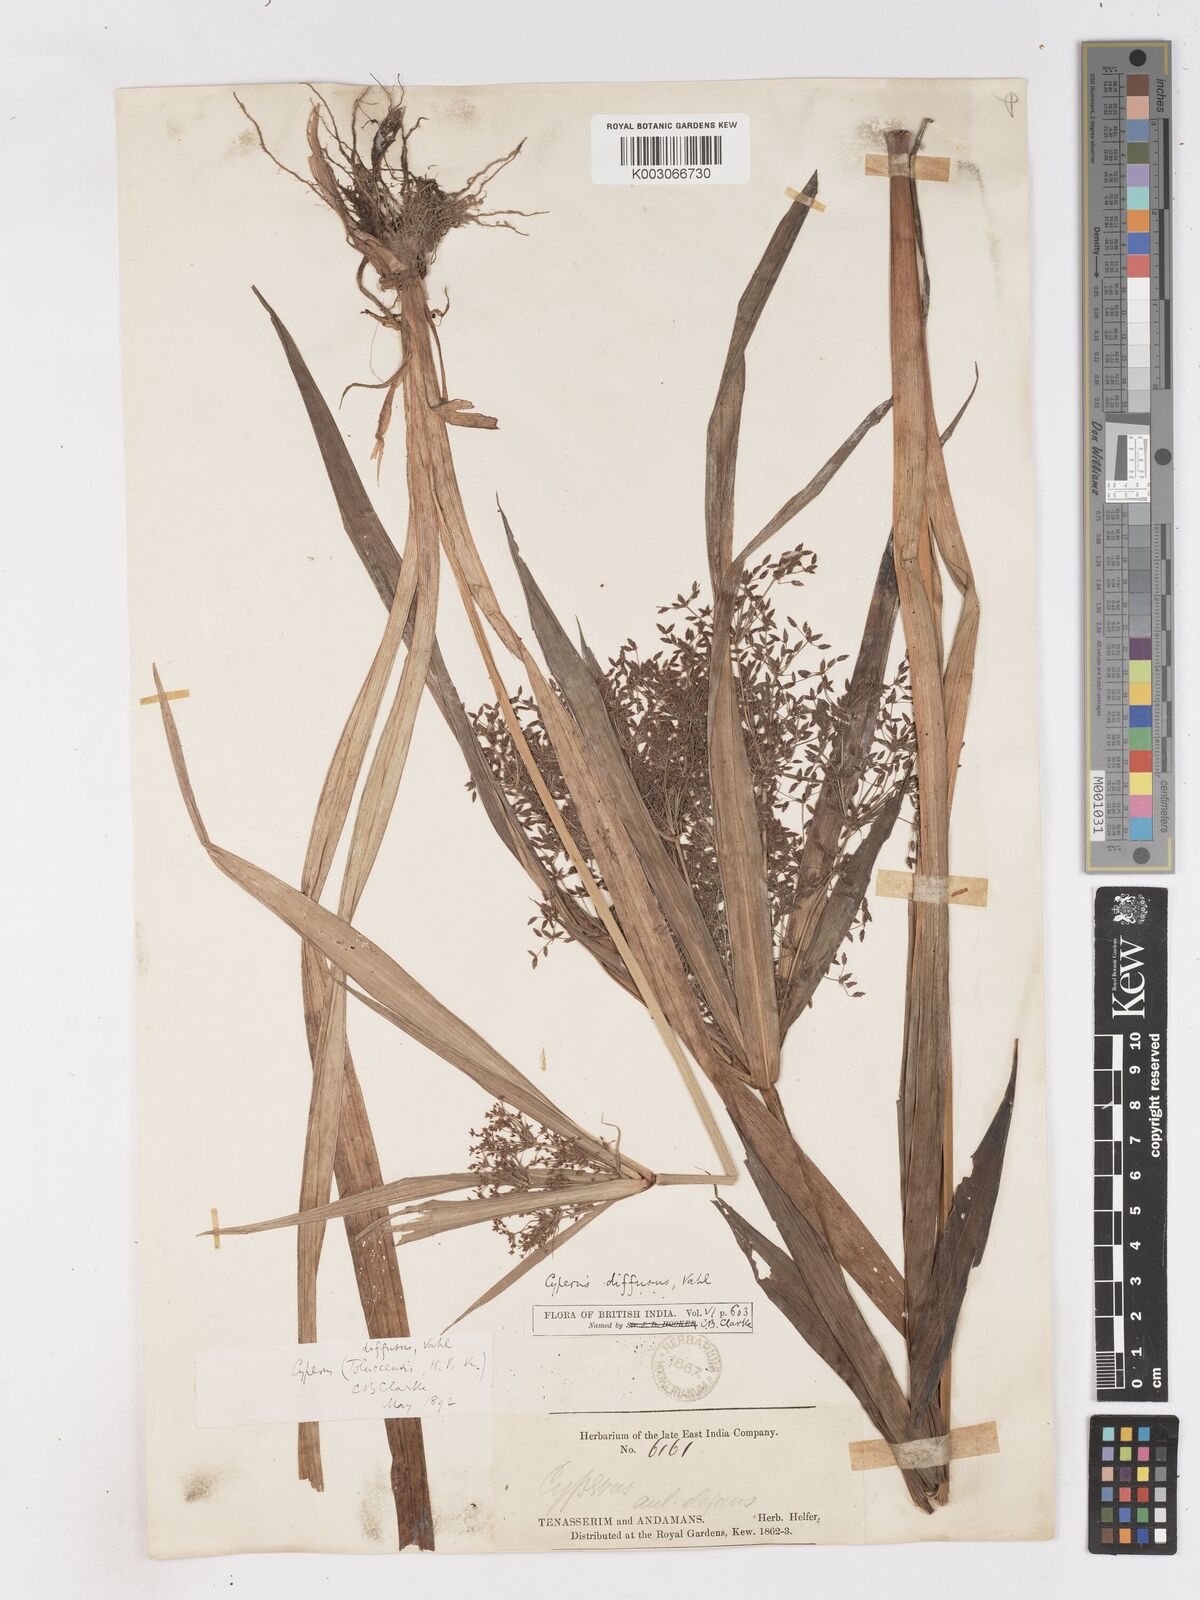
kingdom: Plantae
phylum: Tracheophyta
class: Liliopsida
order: Poales
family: Cyperaceae
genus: Cyperus
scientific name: Cyperus diffusus
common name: Dwarf umbrella grass
